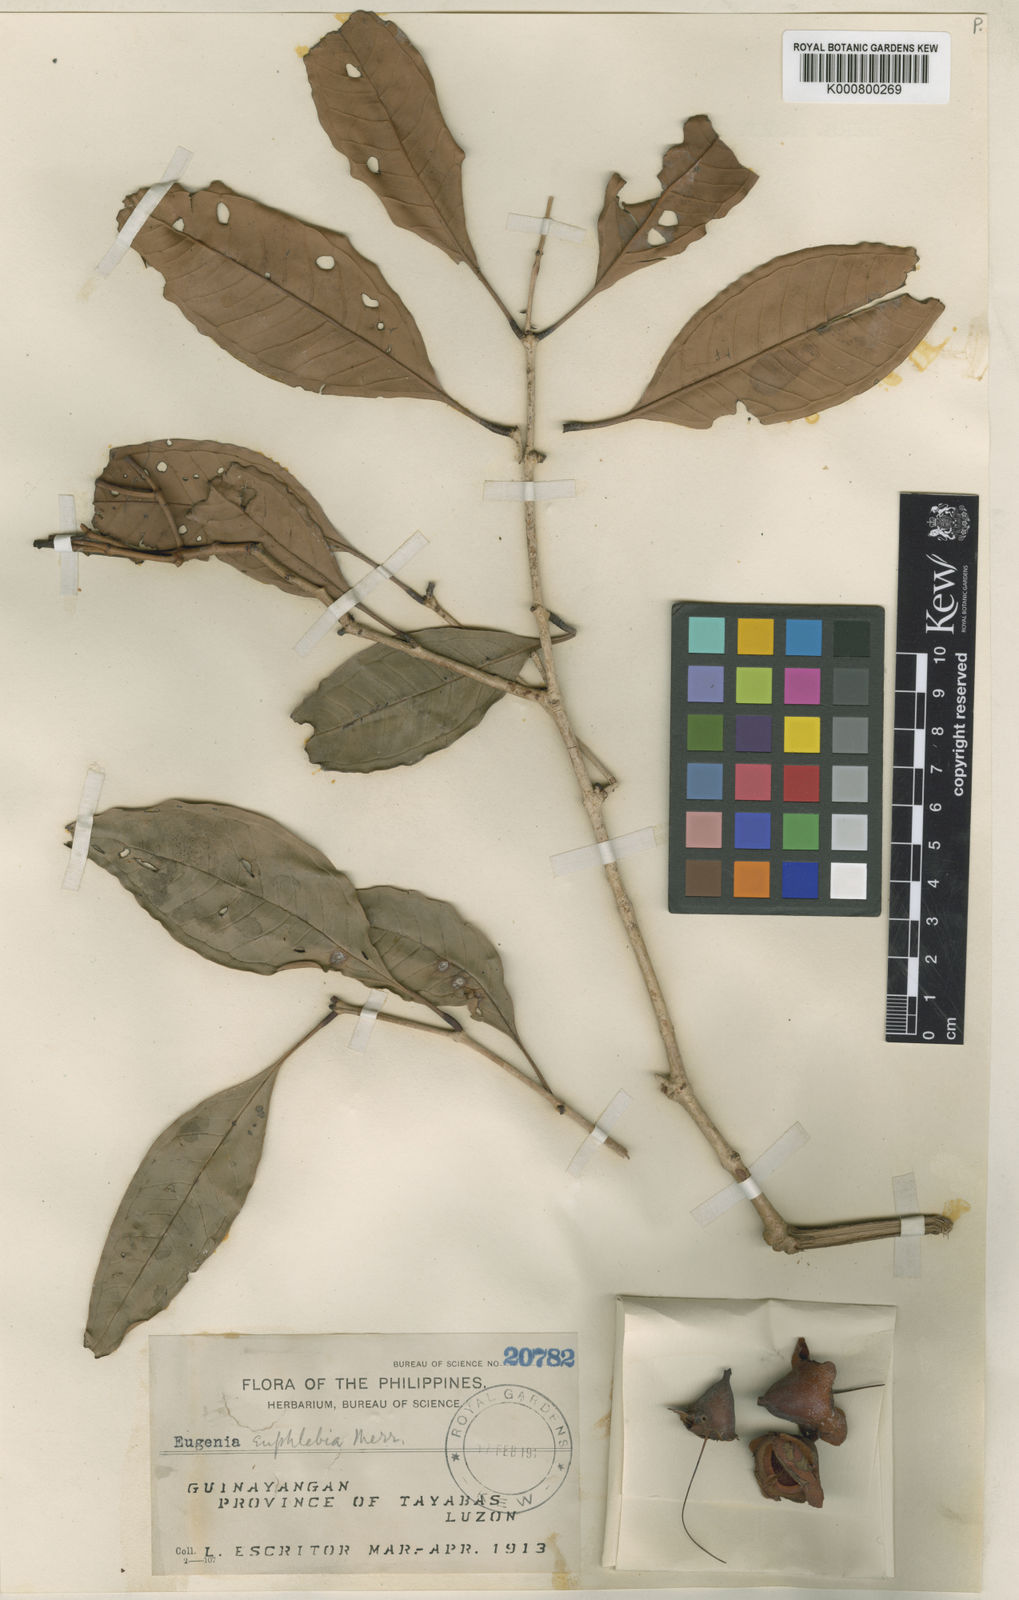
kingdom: Plantae
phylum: Tracheophyta
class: Magnoliopsida
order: Myrtales
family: Myrtaceae
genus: Syzygium
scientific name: Syzygium escritorii
